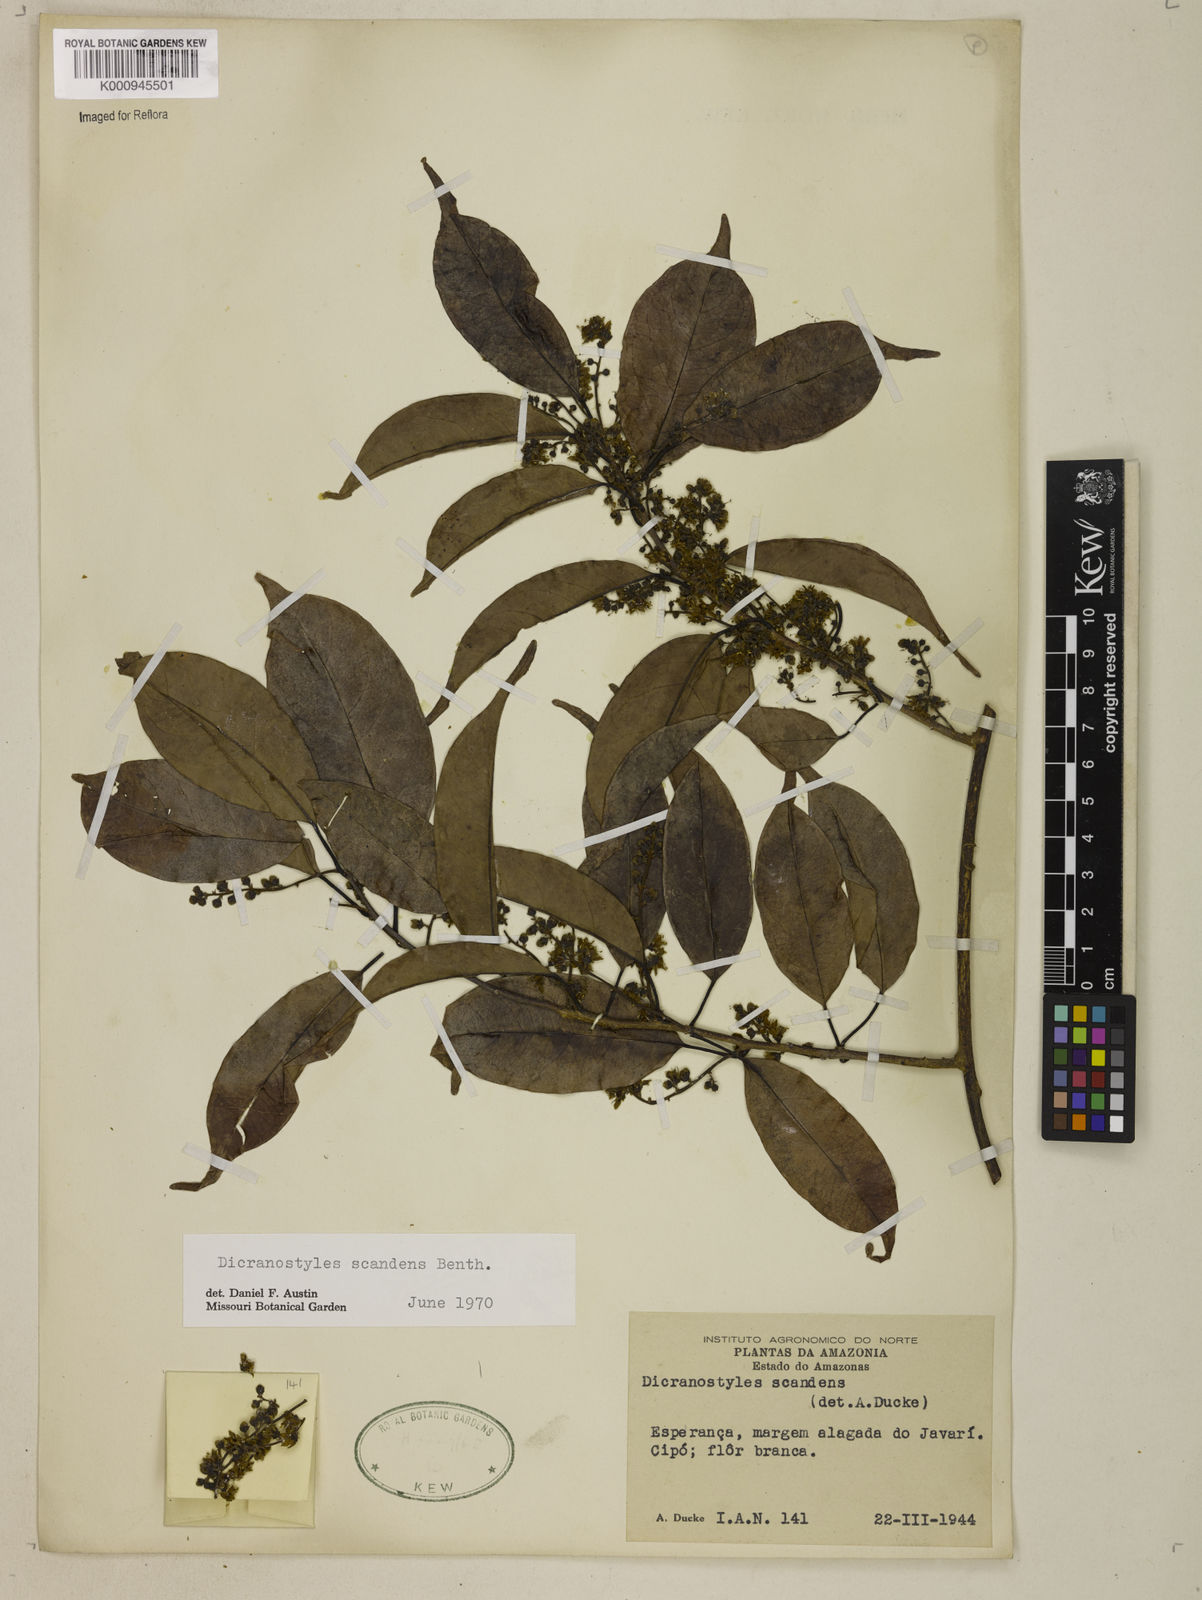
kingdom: Plantae
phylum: Tracheophyta
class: Magnoliopsida
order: Solanales
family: Convolvulaceae
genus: Dicranostyles
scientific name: Dicranostyles scandens
